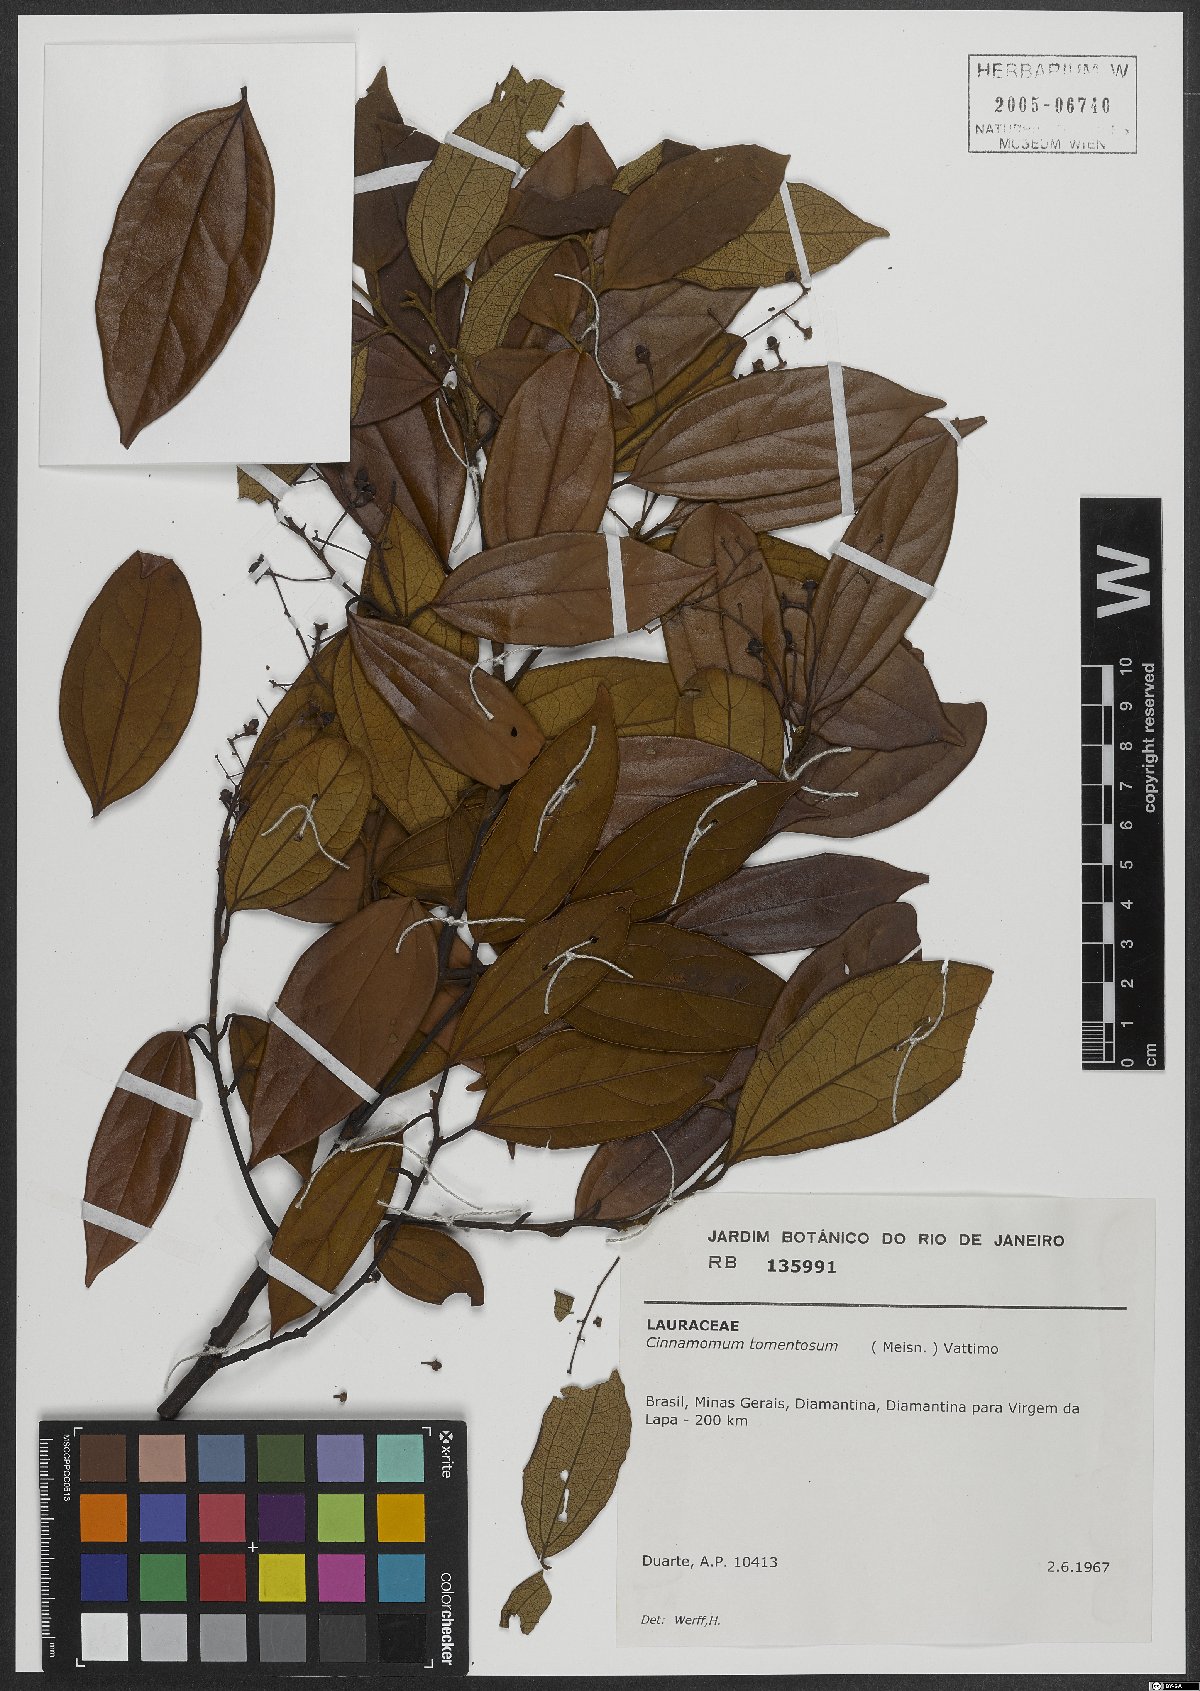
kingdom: Plantae
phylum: Tracheophyta
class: Magnoliopsida
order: Laurales
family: Lauraceae
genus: Aiouea
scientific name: Aiouea tomentosa
